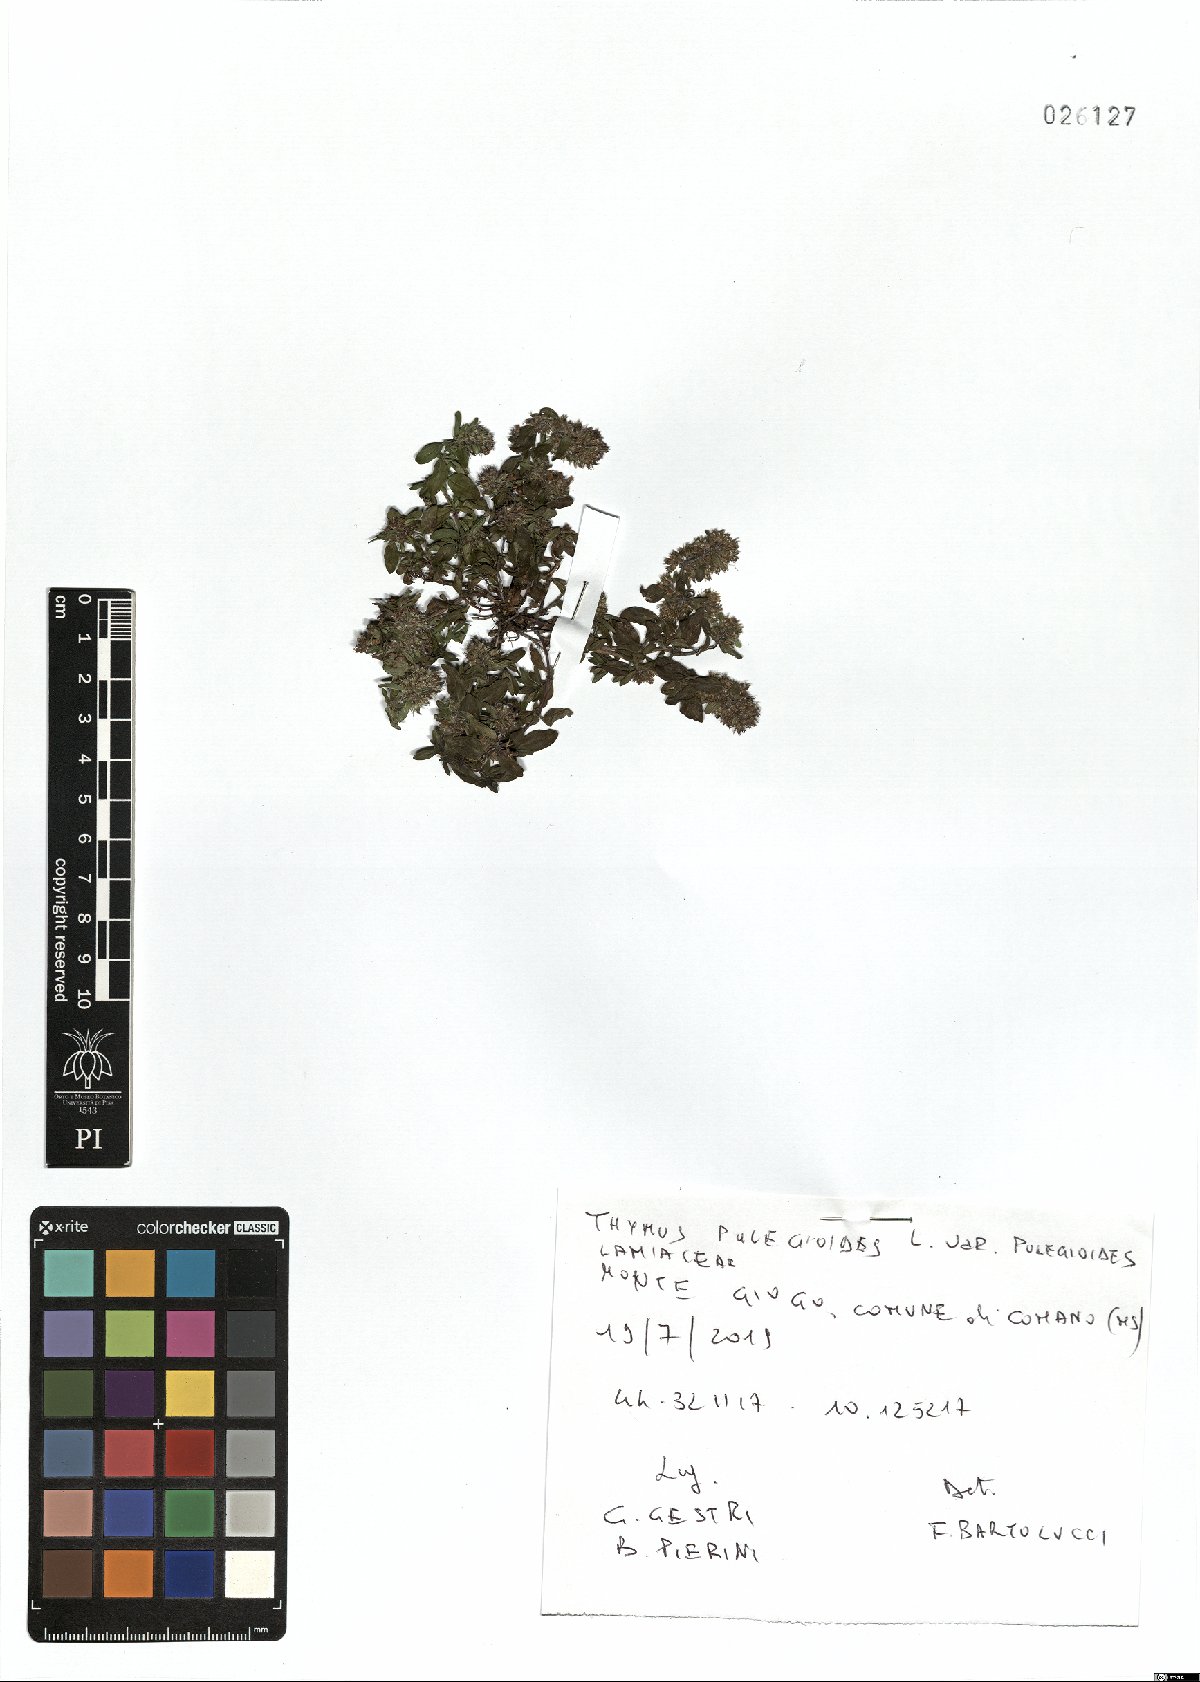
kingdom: Plantae
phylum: Tracheophyta
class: Magnoliopsida
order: Lamiales
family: Lamiaceae
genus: Thymus
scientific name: Thymus pulegioides
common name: Large thyme
